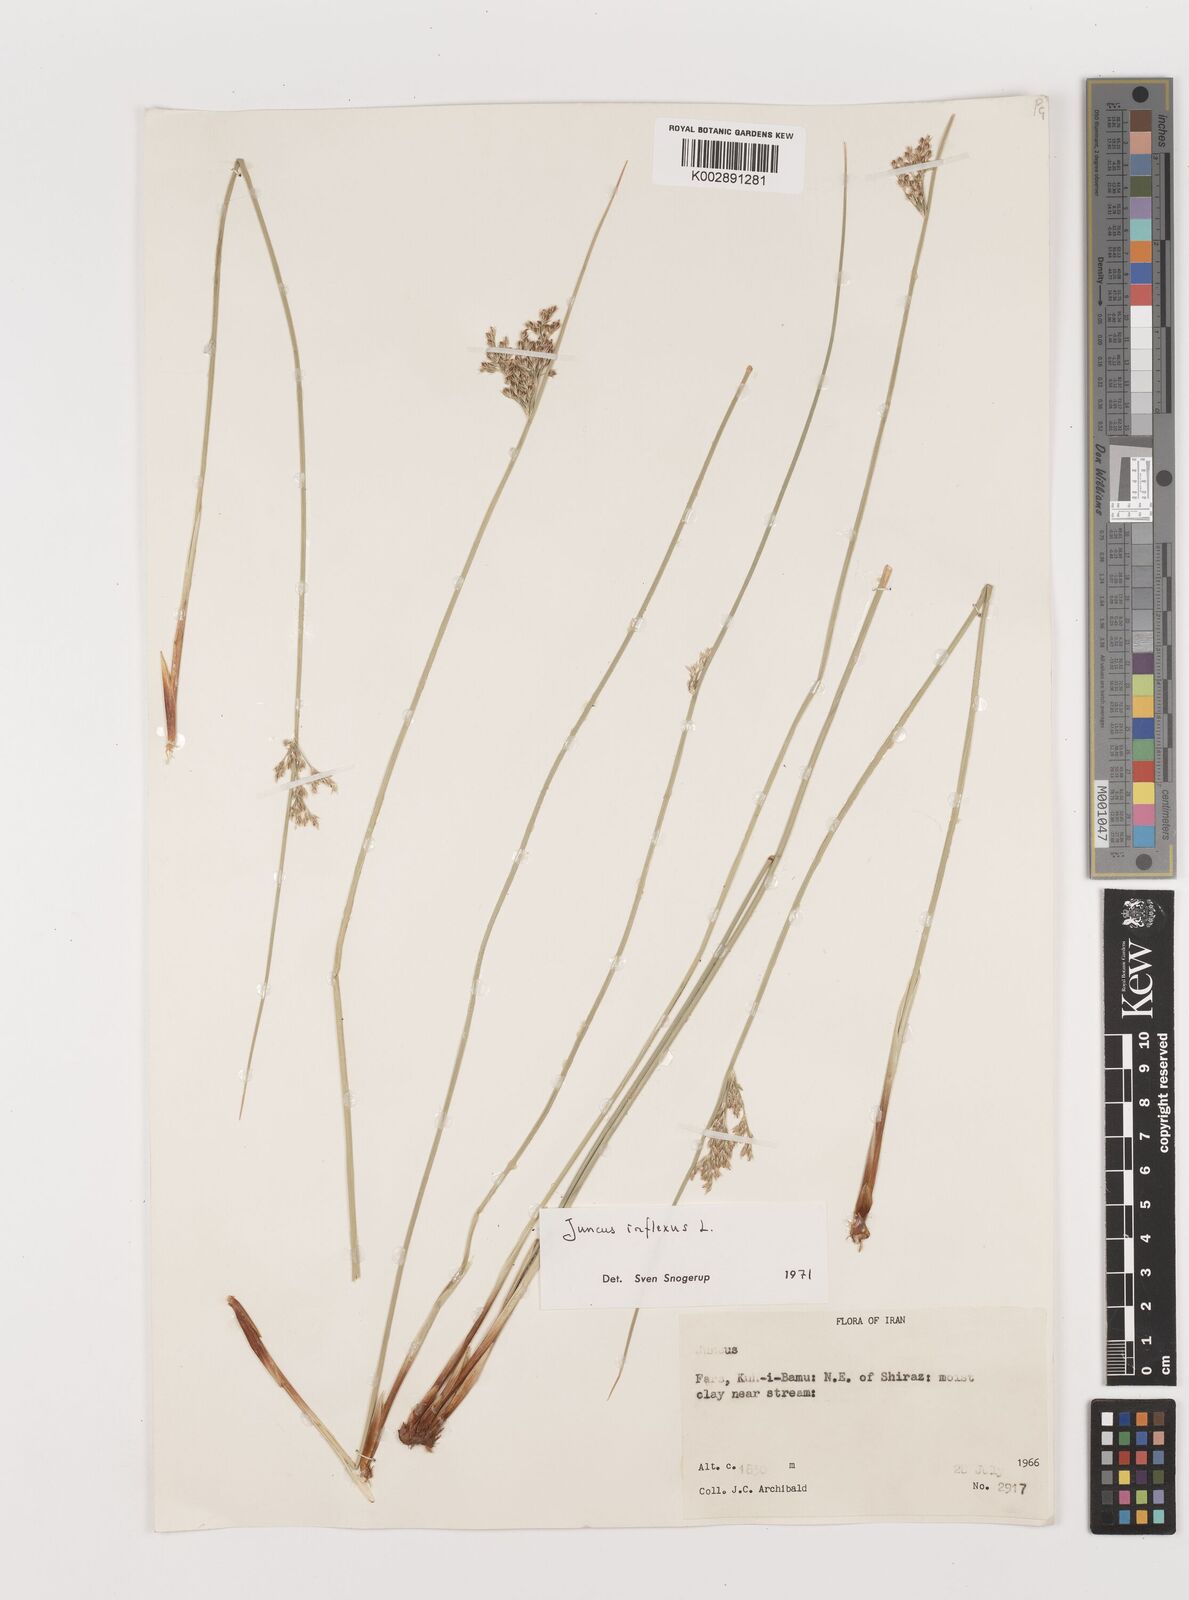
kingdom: Plantae
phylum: Tracheophyta
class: Liliopsida
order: Poales
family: Juncaceae
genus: Juncus
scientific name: Juncus inflexus
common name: Hard rush
